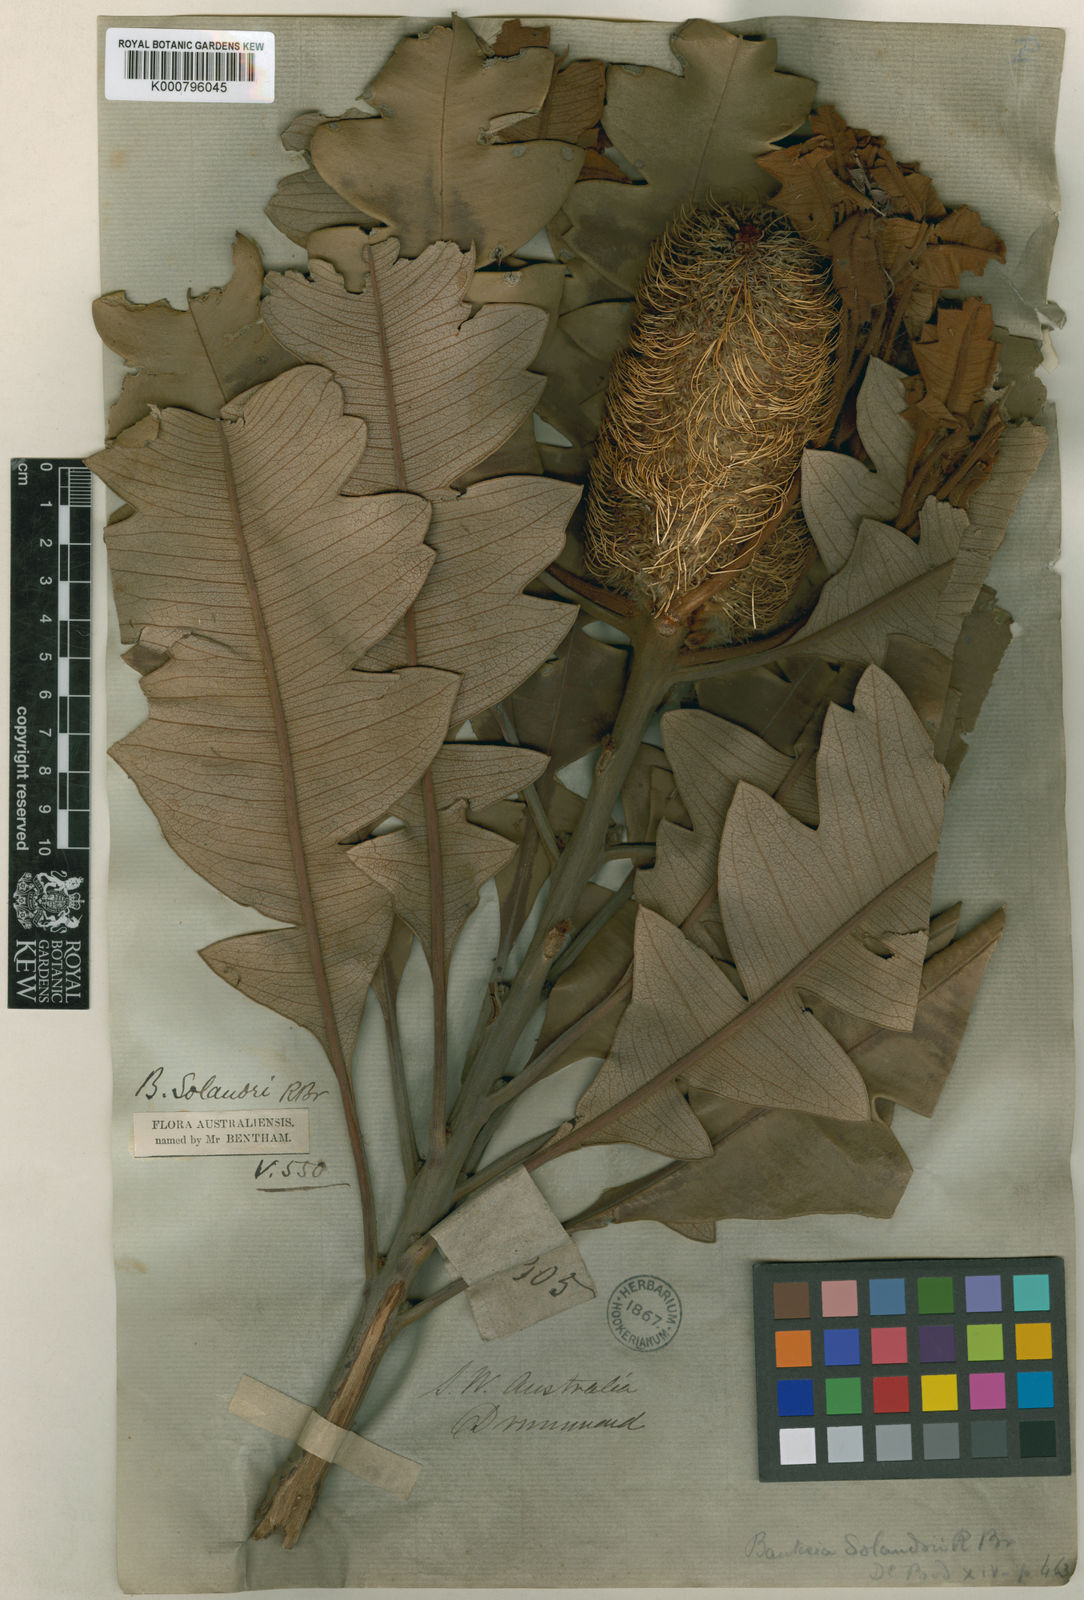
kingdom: Plantae
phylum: Tracheophyta
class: Magnoliopsida
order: Proteales
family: Proteaceae
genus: Banksia
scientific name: Banksia solandri
